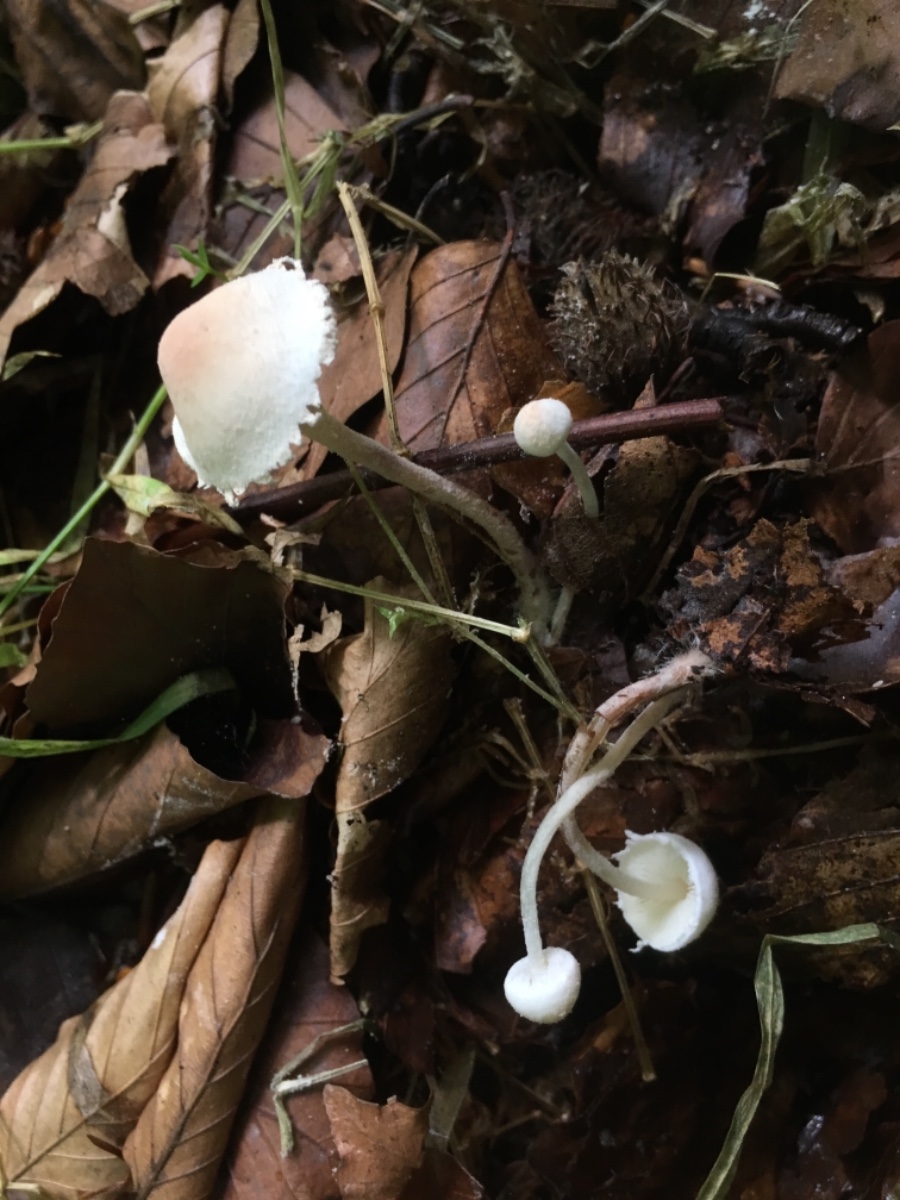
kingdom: Fungi
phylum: Basidiomycota
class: Agaricomycetes
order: Agaricales
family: Agaricaceae
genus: Cystolepiota
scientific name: Cystolepiota seminuda
